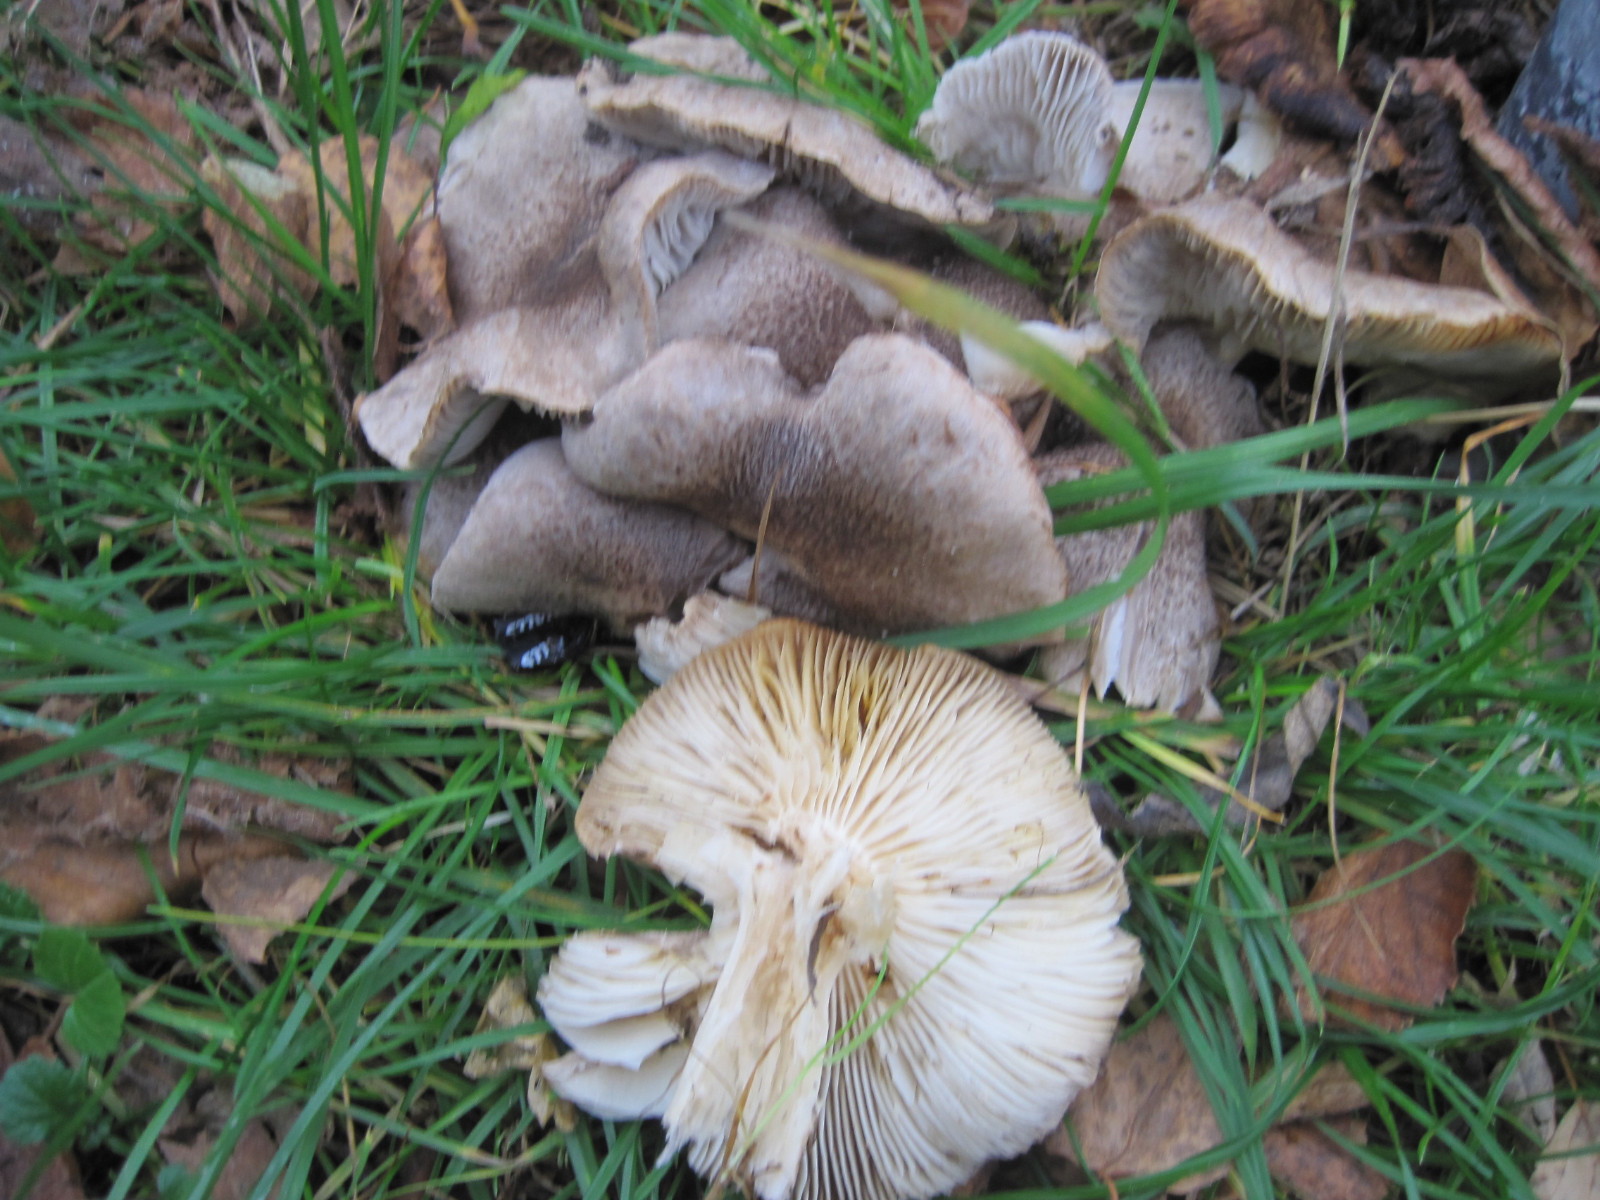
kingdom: Fungi
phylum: Basidiomycota
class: Agaricomycetes
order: Agaricales
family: Tricholomataceae
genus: Tricholoma
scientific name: Tricholoma scalpturatum
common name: gulplettet ridderhat
